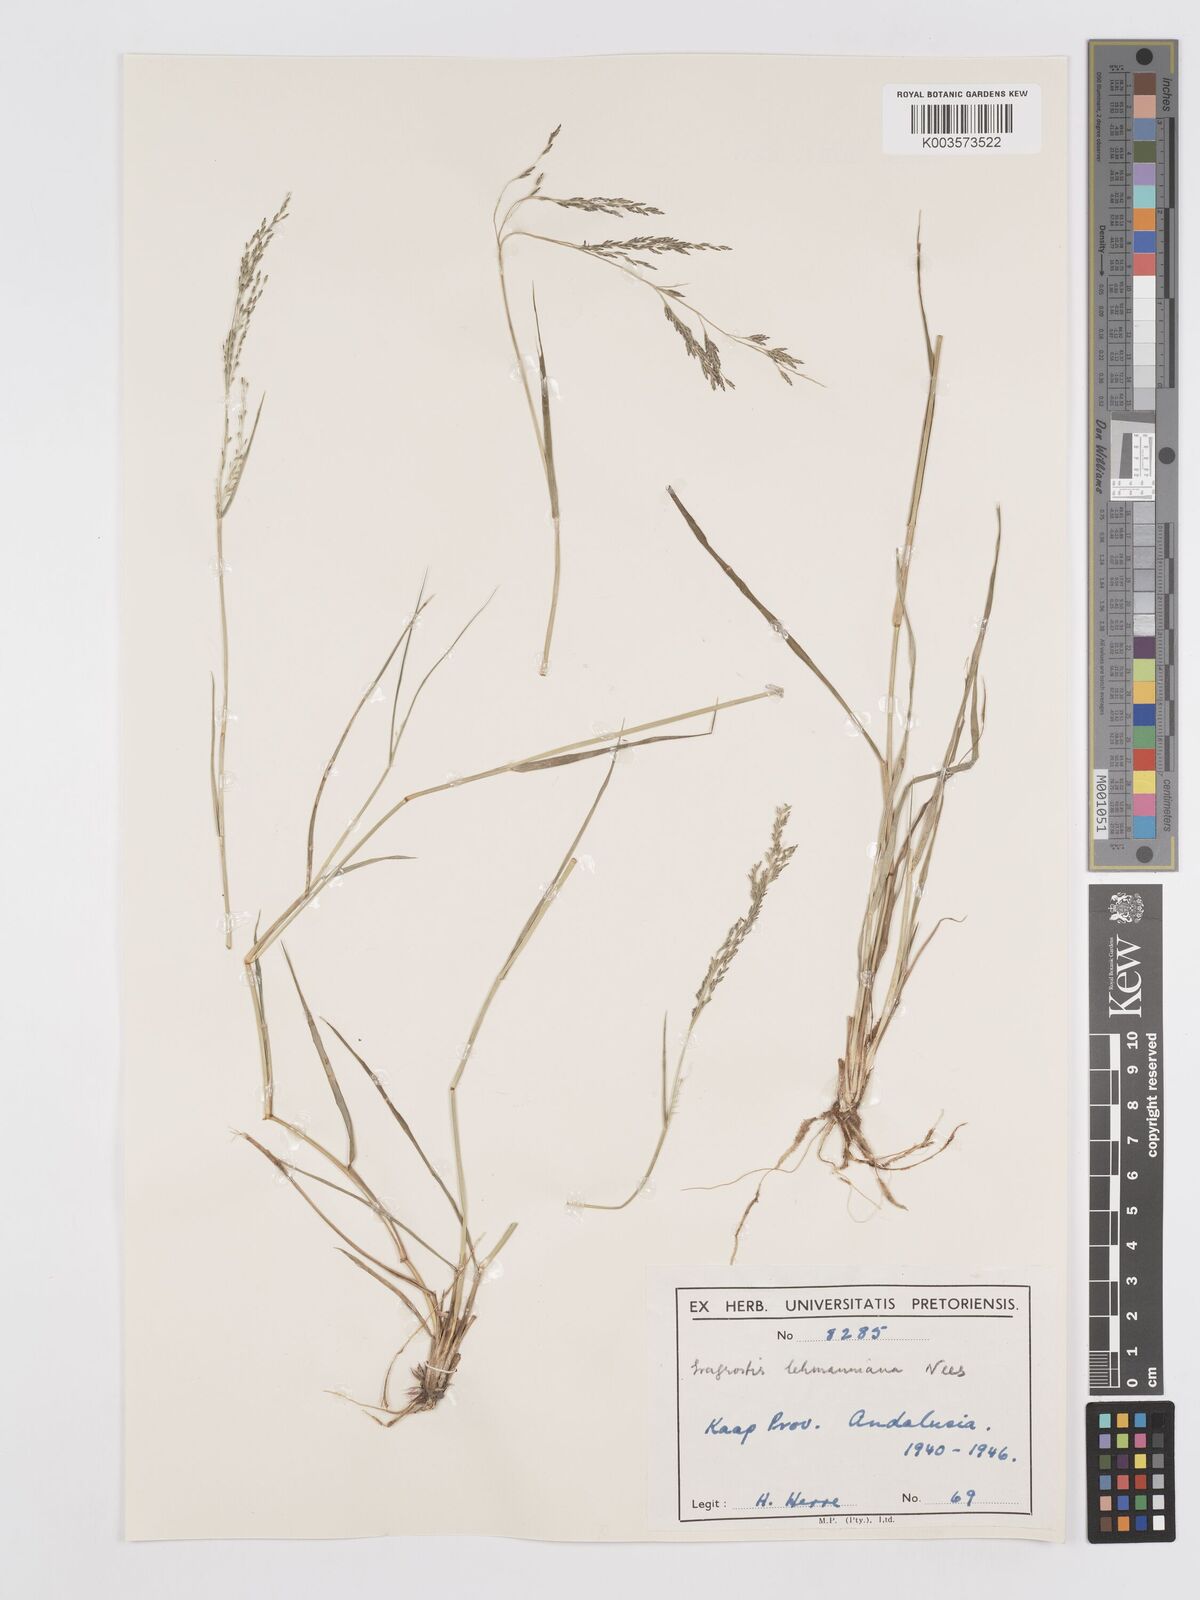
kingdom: Plantae
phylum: Tracheophyta
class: Liliopsida
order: Poales
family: Poaceae
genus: Eragrostis
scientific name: Eragrostis lehmanniana
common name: Lehmann lovegrass
